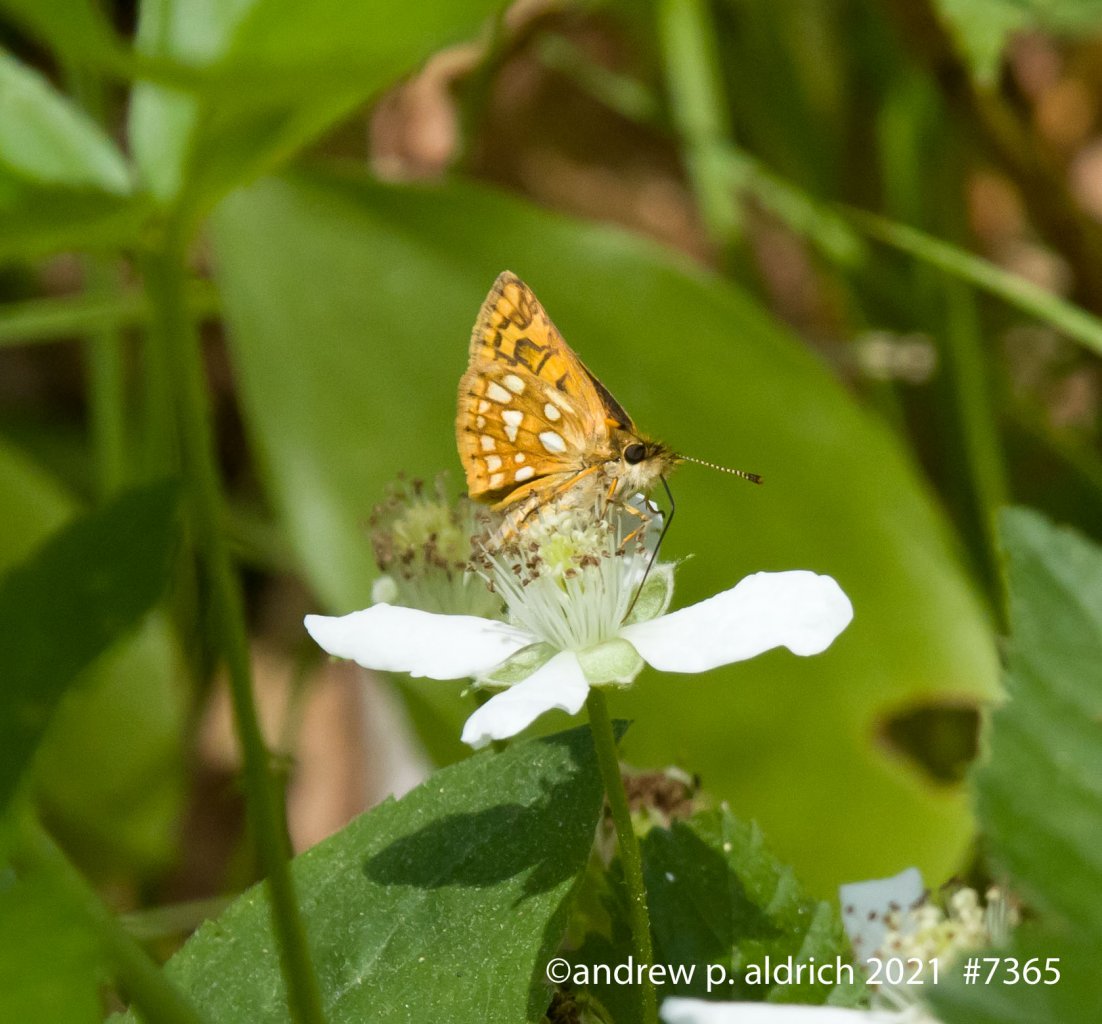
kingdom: Animalia
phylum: Arthropoda
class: Insecta
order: Lepidoptera
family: Hesperiidae
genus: Carterocephalus
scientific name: Carterocephalus palaemon
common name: Chequered Skipper
